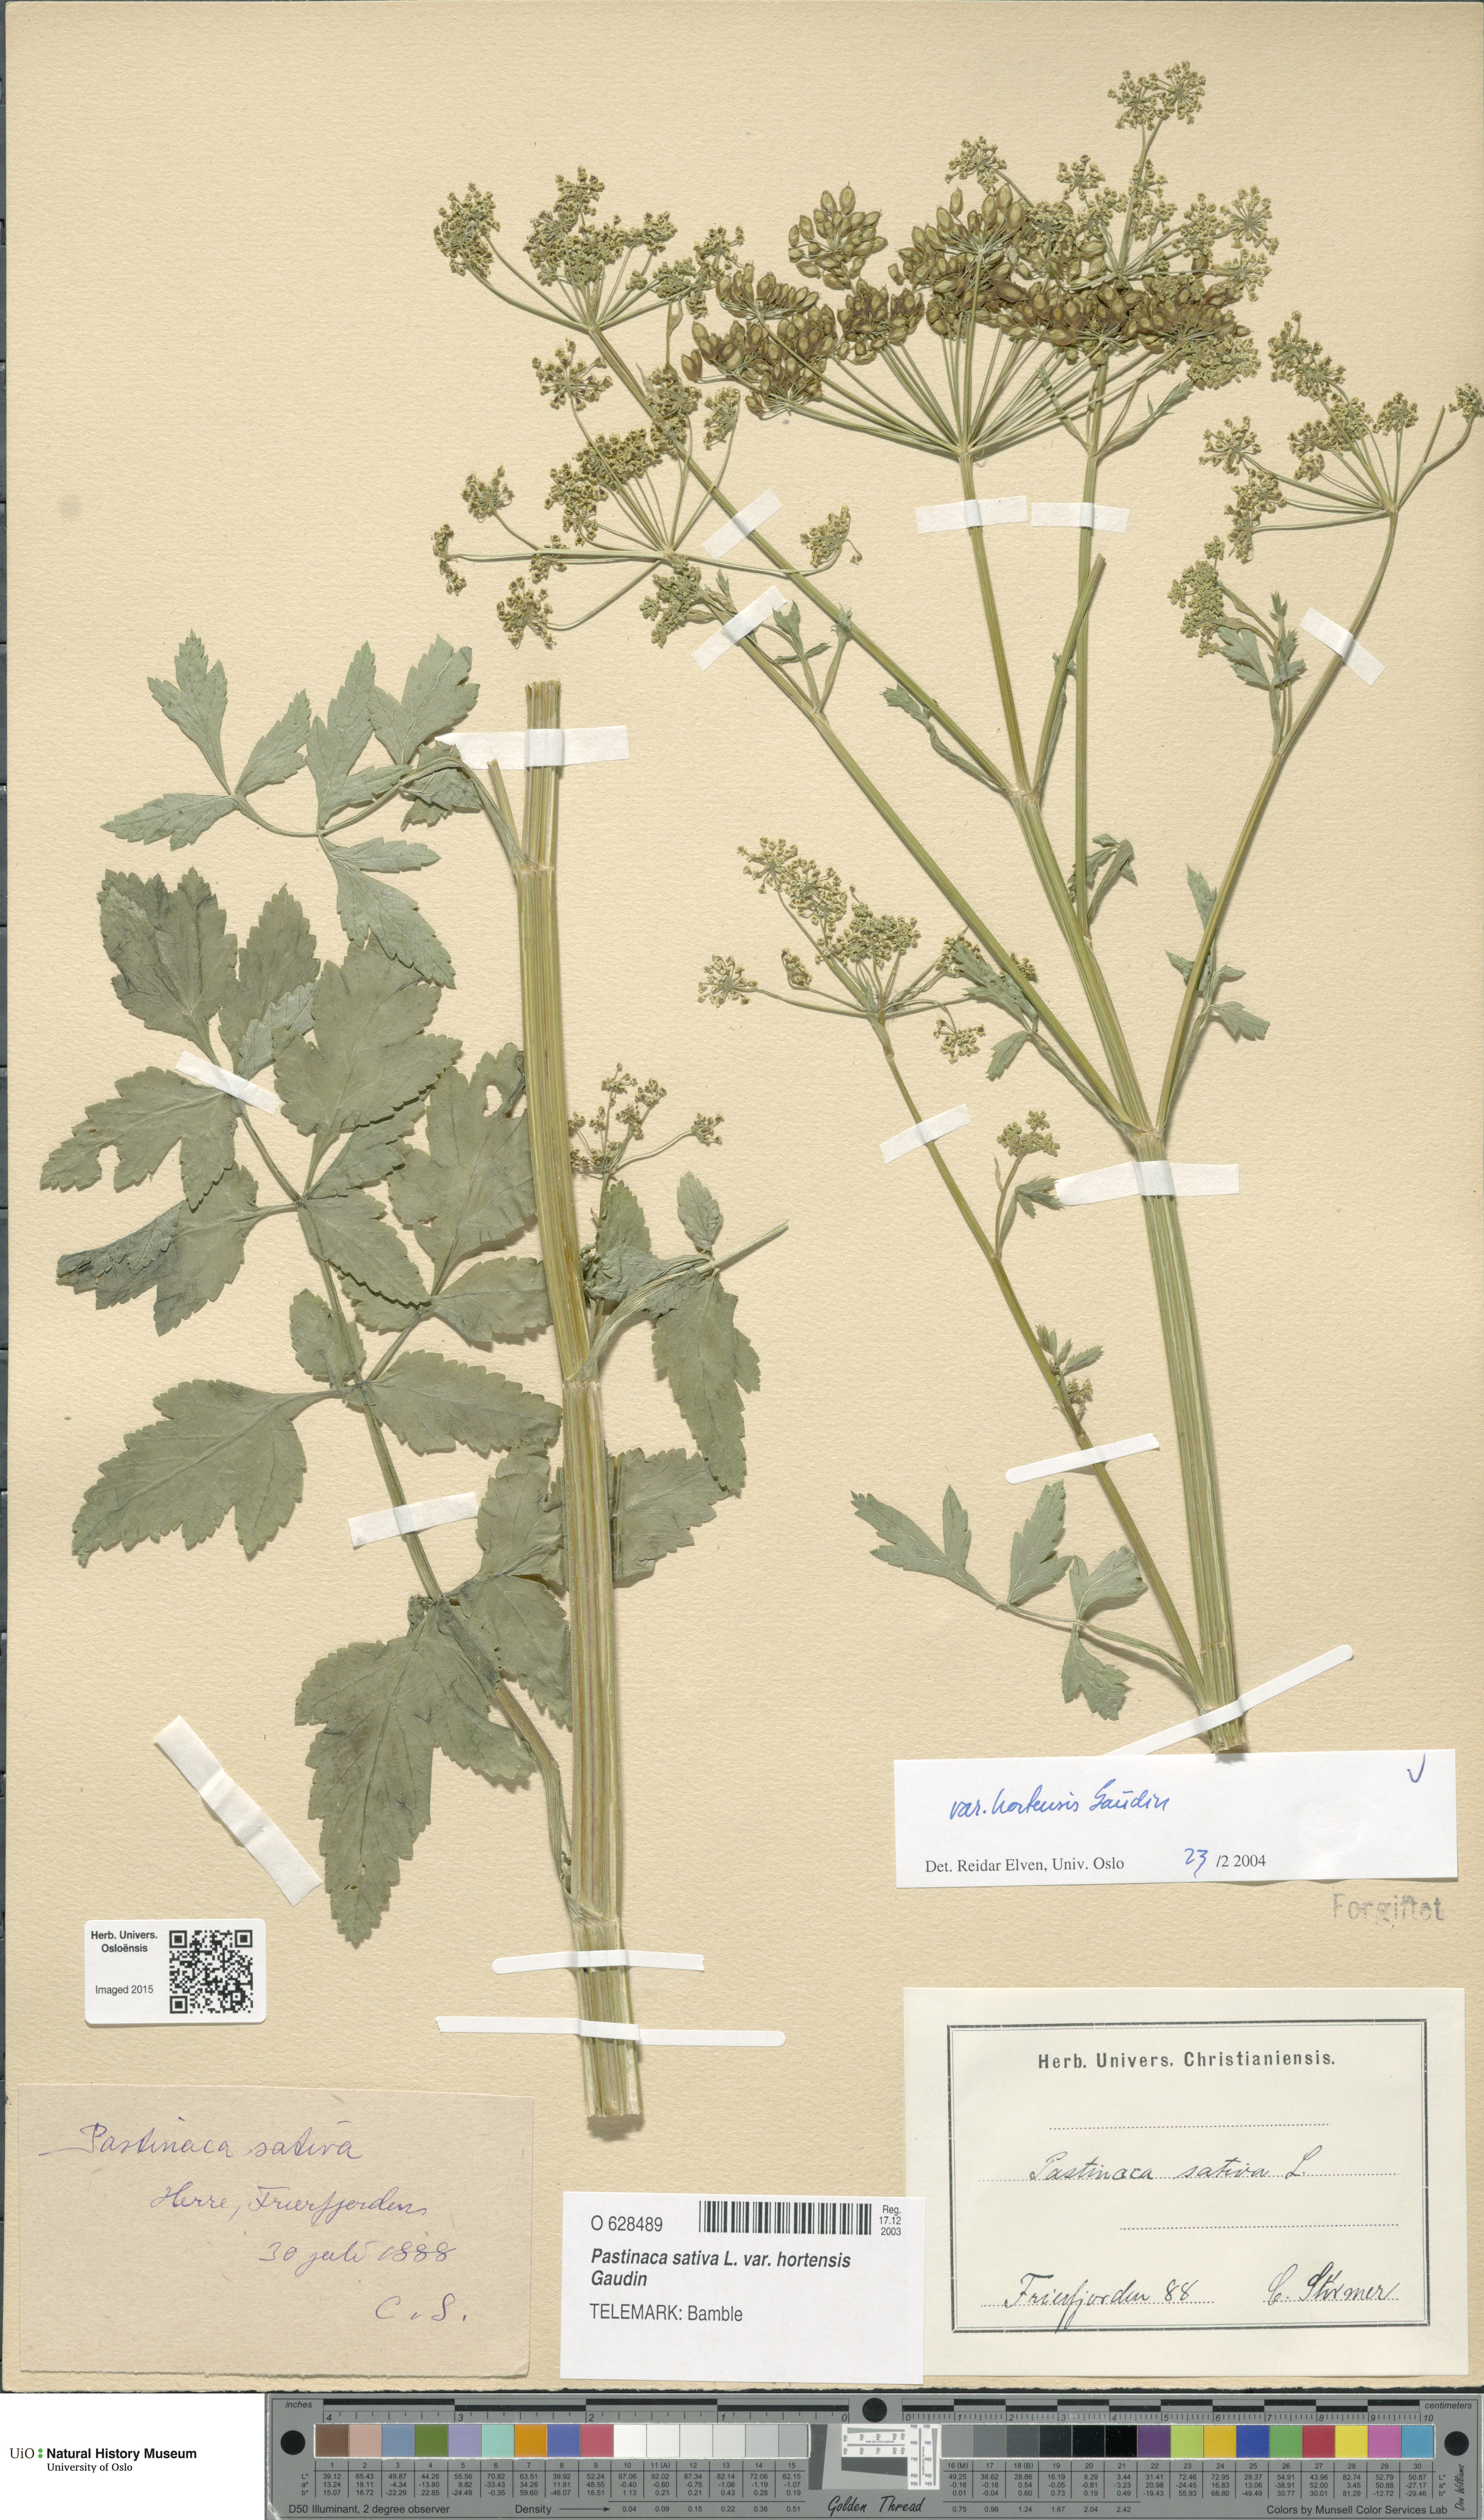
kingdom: Plantae
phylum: Tracheophyta
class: Magnoliopsida
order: Apiales
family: Apiaceae
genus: Pastinaca
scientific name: Pastinaca sativa
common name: Wild parsnip
